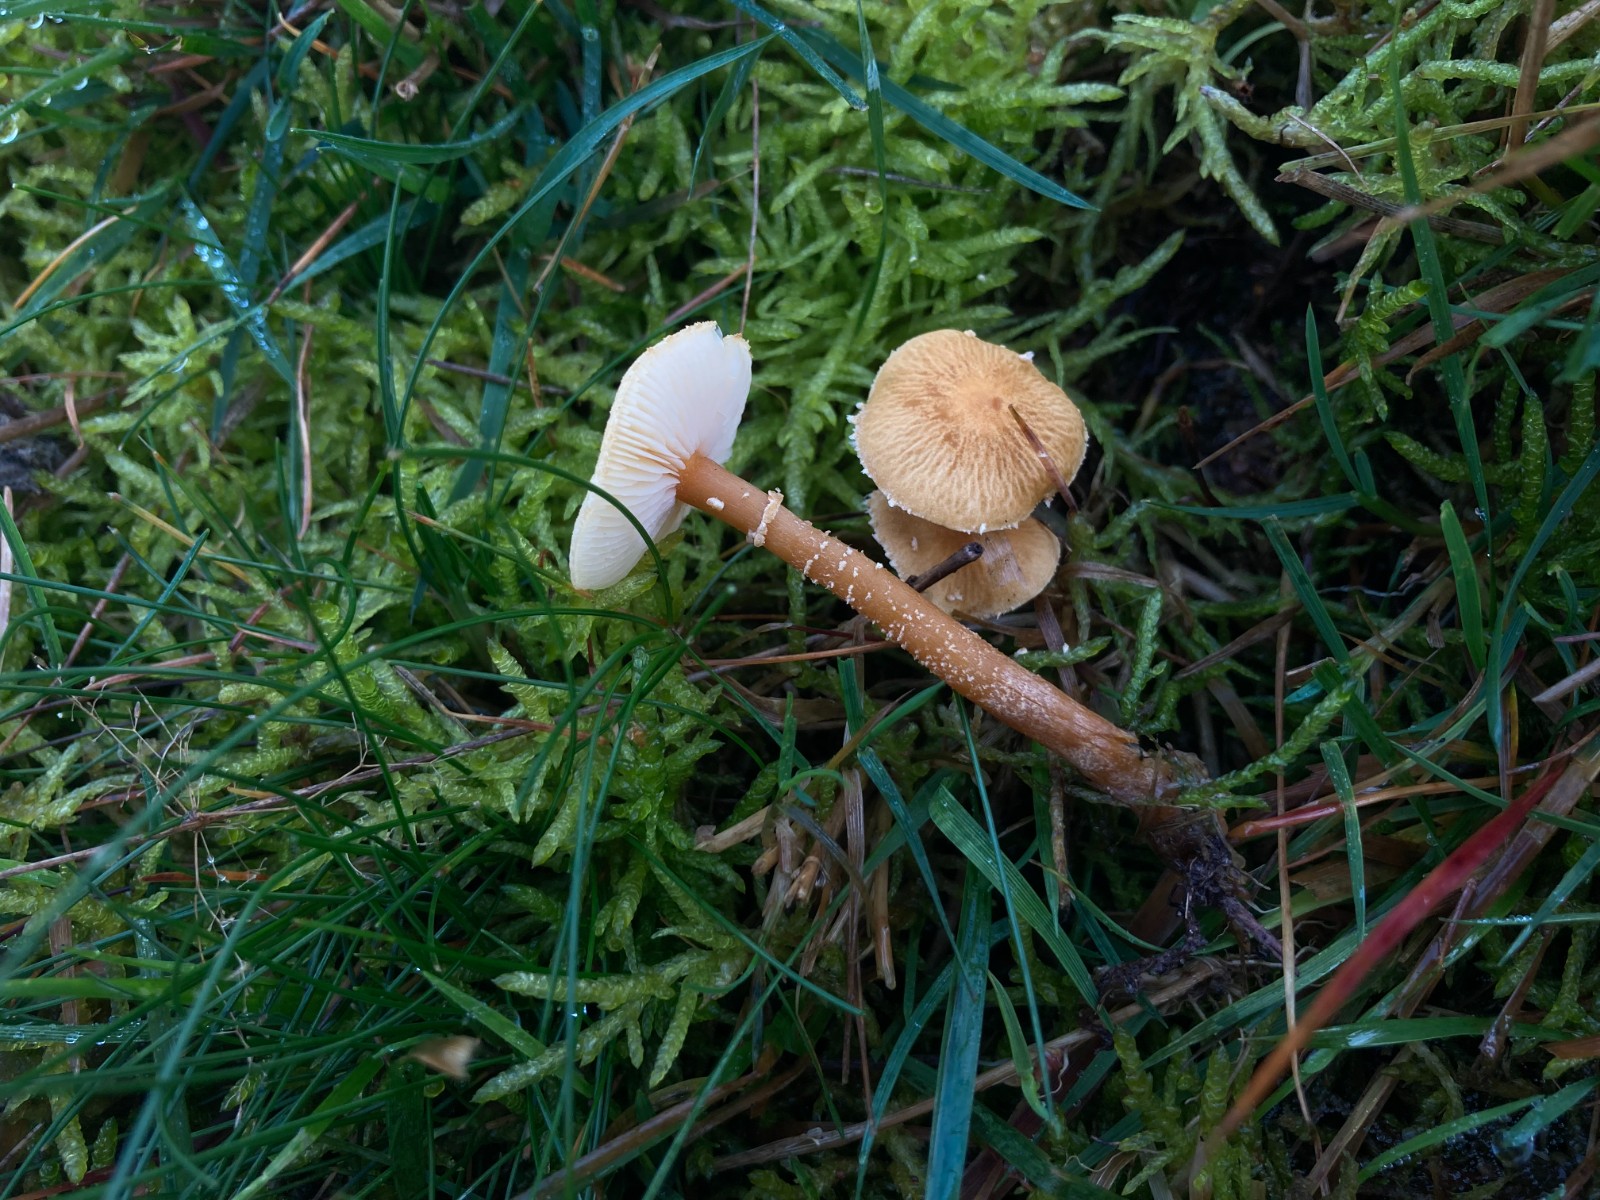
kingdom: Fungi
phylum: Basidiomycota
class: Agaricomycetes
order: Agaricales
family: Tricholomataceae
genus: Cystoderma
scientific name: Cystoderma amianthinum
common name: okkergul grynhat
